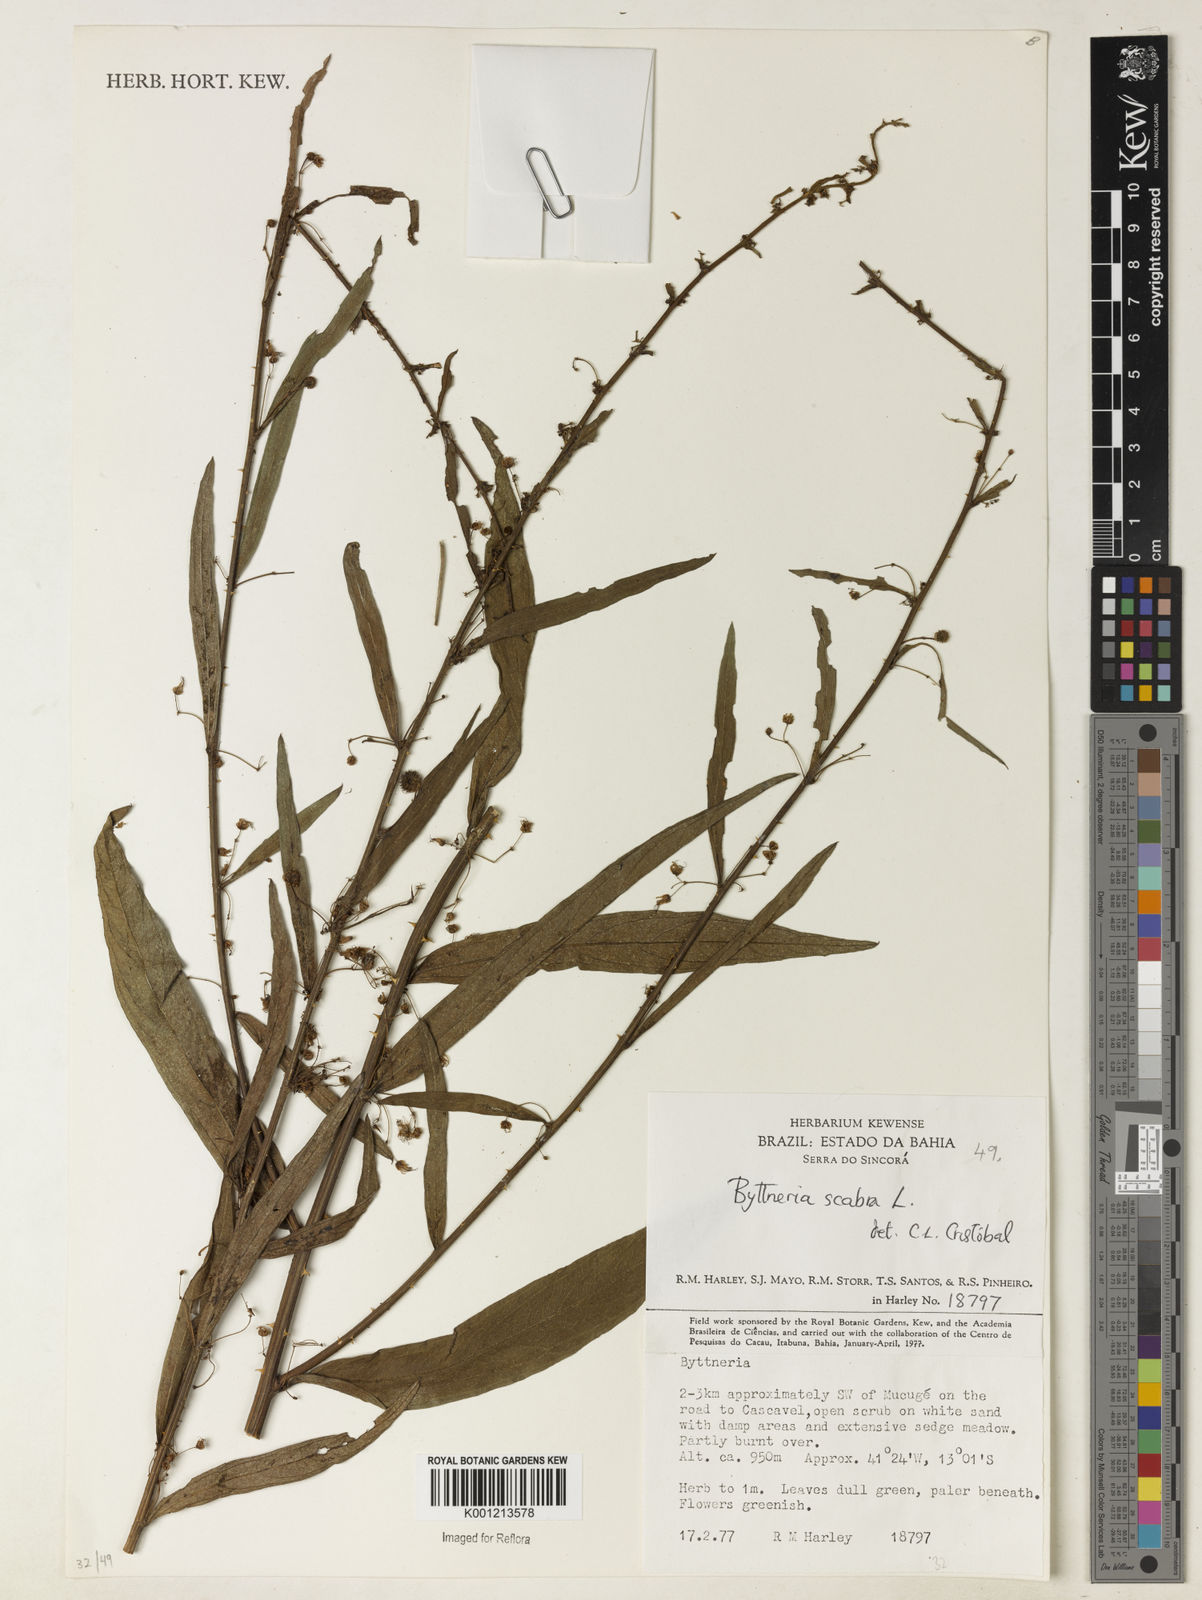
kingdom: Plantae
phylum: Tracheophyta
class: Magnoliopsida
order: Malvales
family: Malvaceae
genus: Byttneria
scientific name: Byttneria
